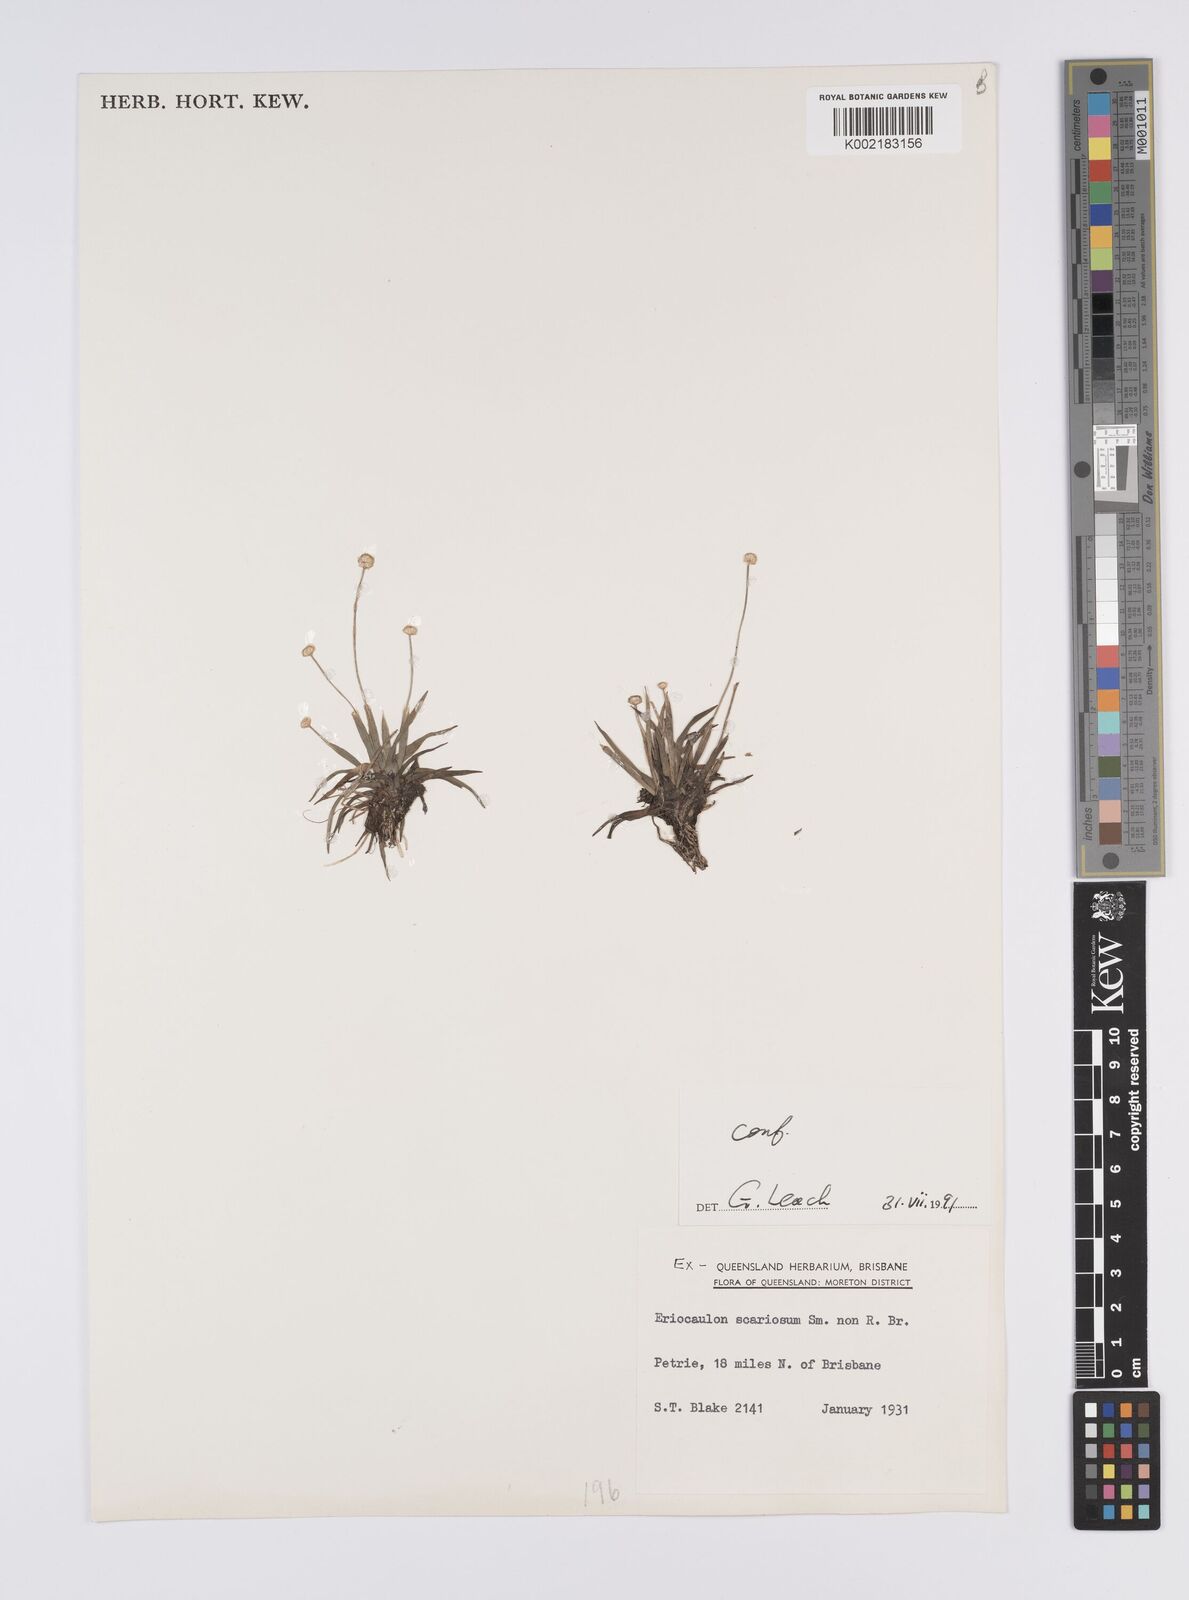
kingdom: Plantae
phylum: Tracheophyta
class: Liliopsida
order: Poales
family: Eriocaulaceae
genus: Eriocaulon
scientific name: Eriocaulon scariosum
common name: Rough pipewort
